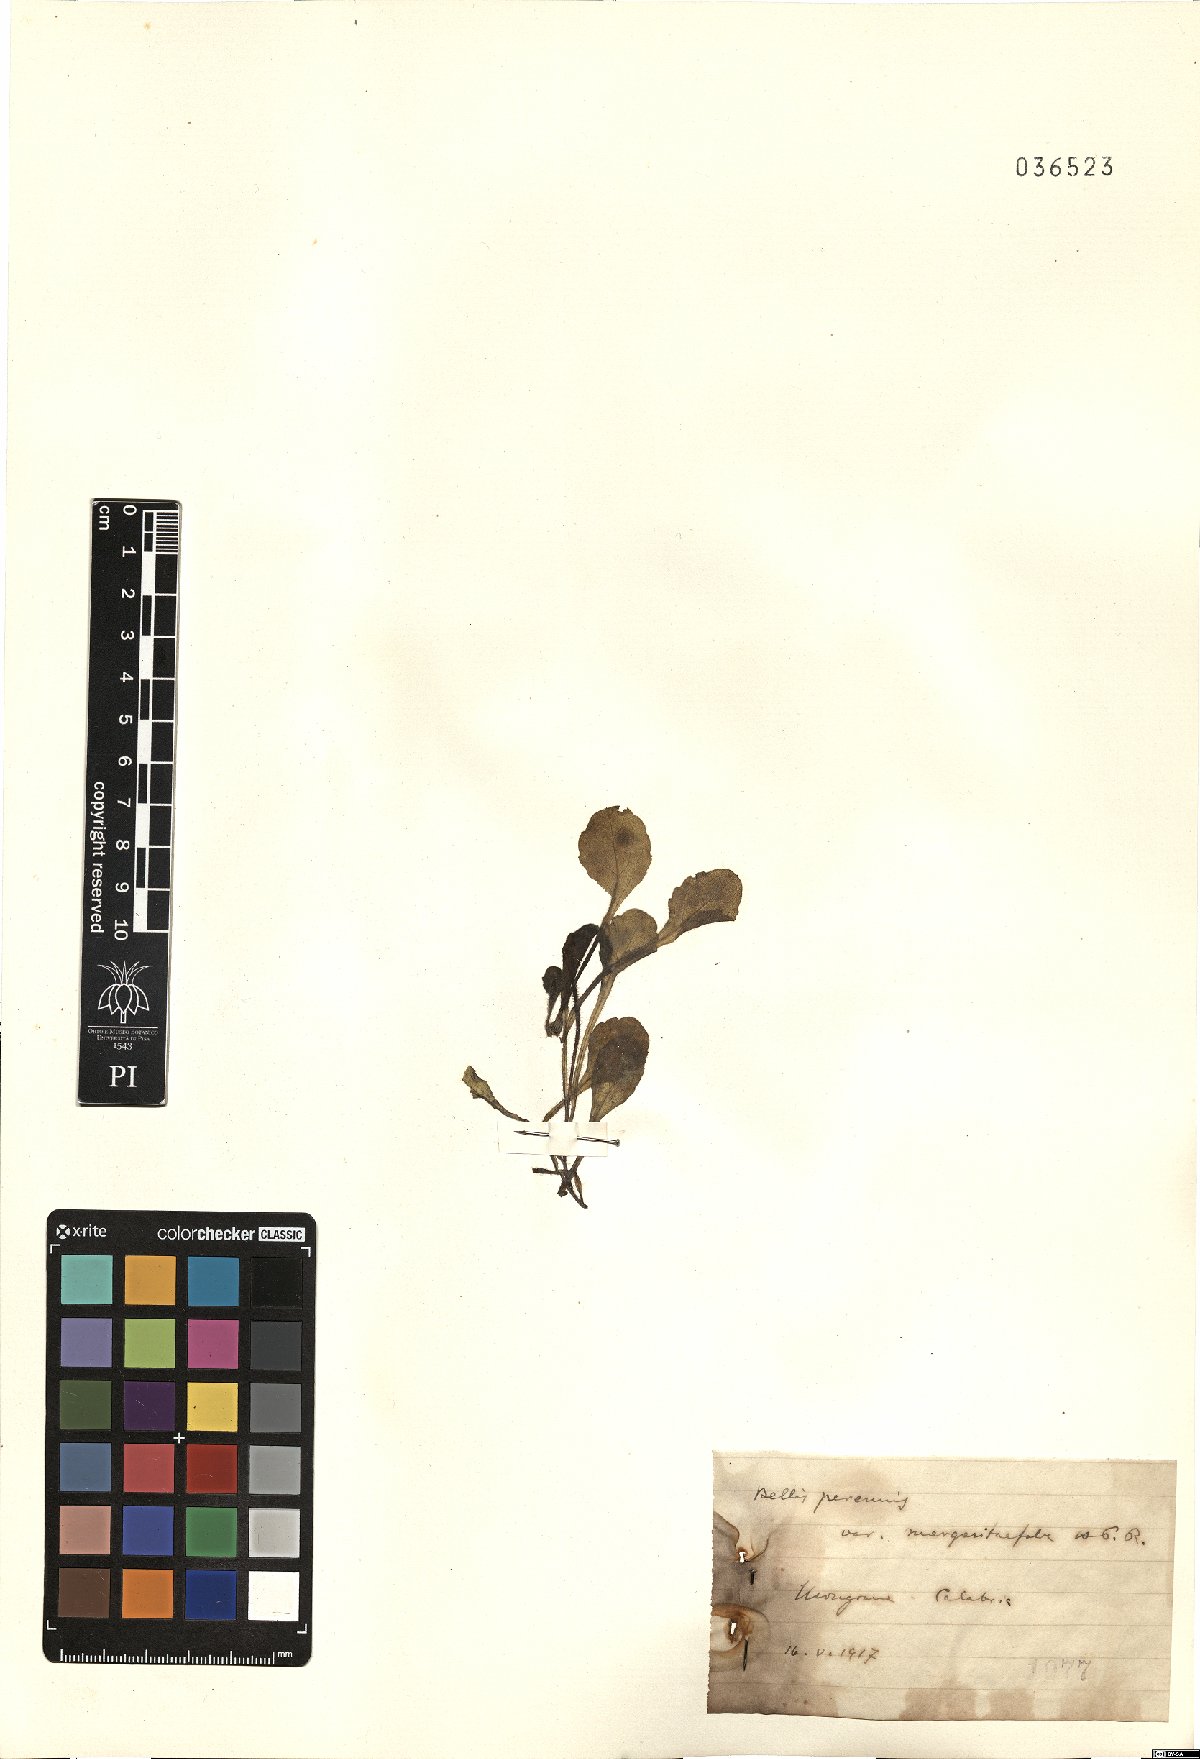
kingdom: Plantae
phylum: Tracheophyta
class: Magnoliopsida
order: Asterales
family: Asteraceae
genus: Bellis
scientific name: Bellis perennis
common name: Lawndaisy
